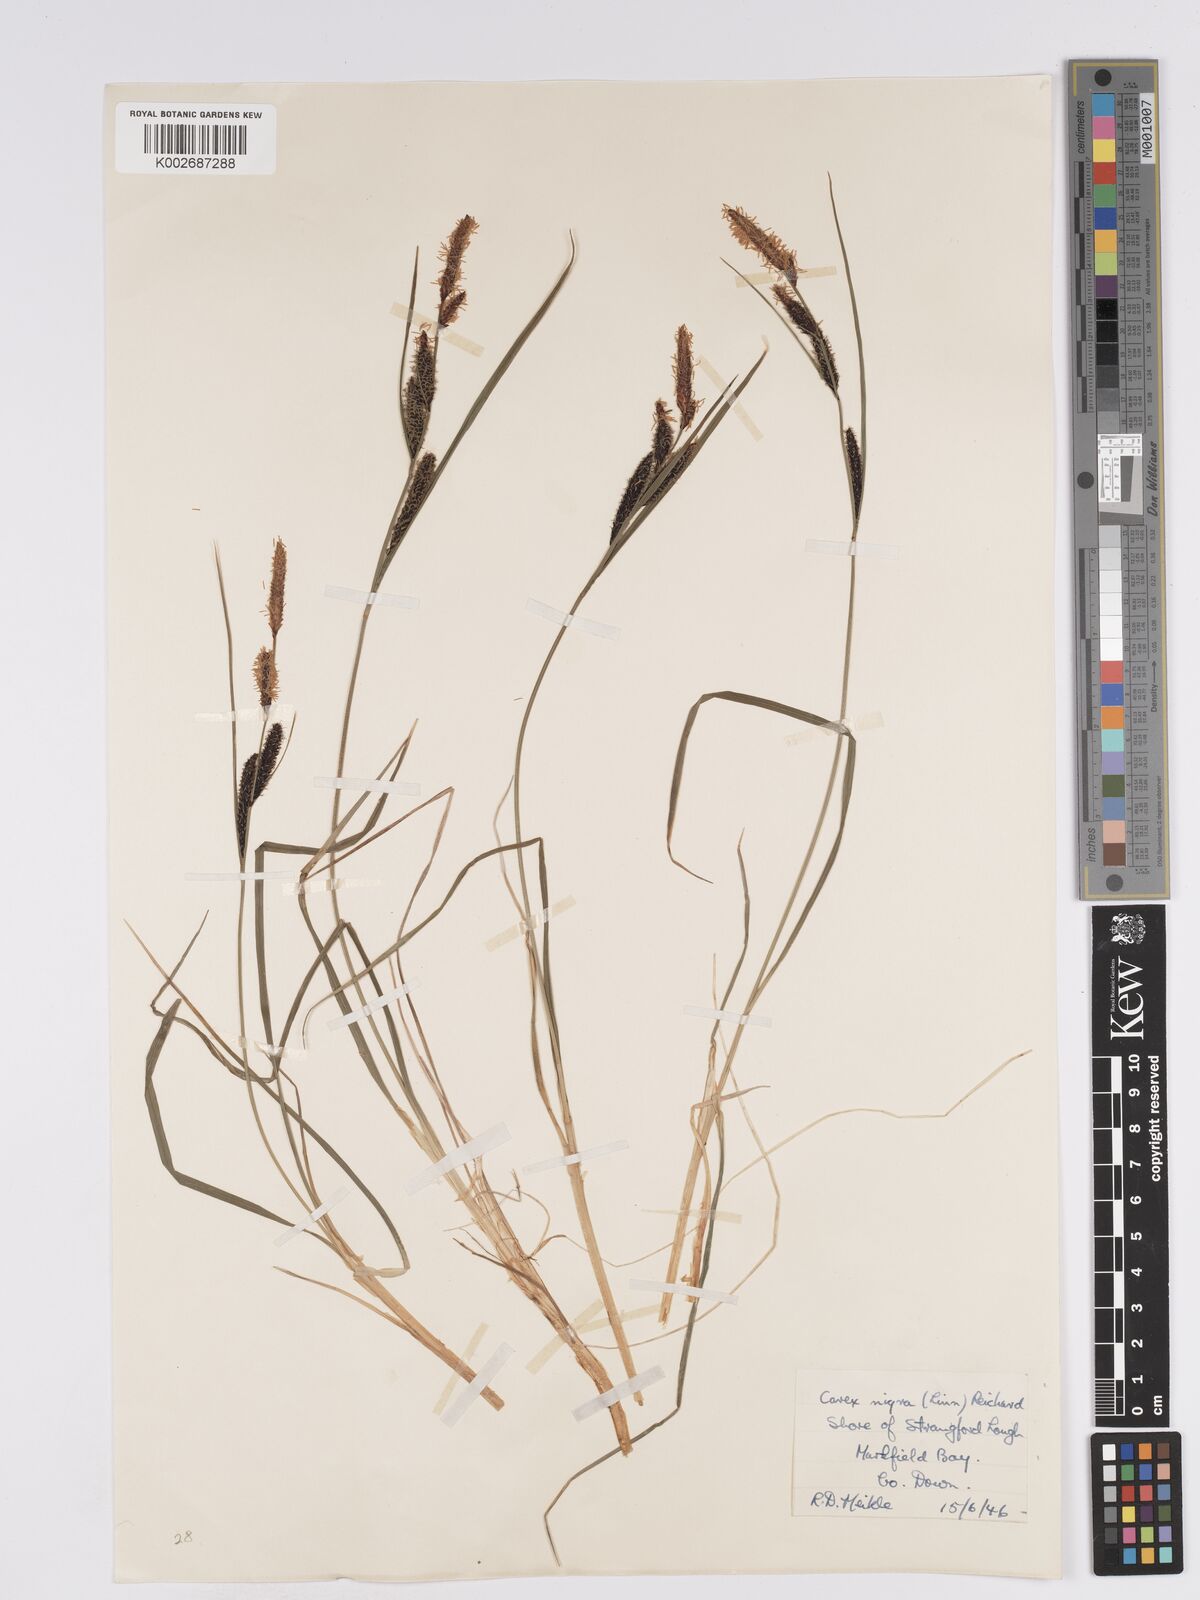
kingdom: Plantae
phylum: Tracheophyta
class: Liliopsida
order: Poales
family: Cyperaceae
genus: Carex
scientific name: Carex nigra
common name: Common sedge
